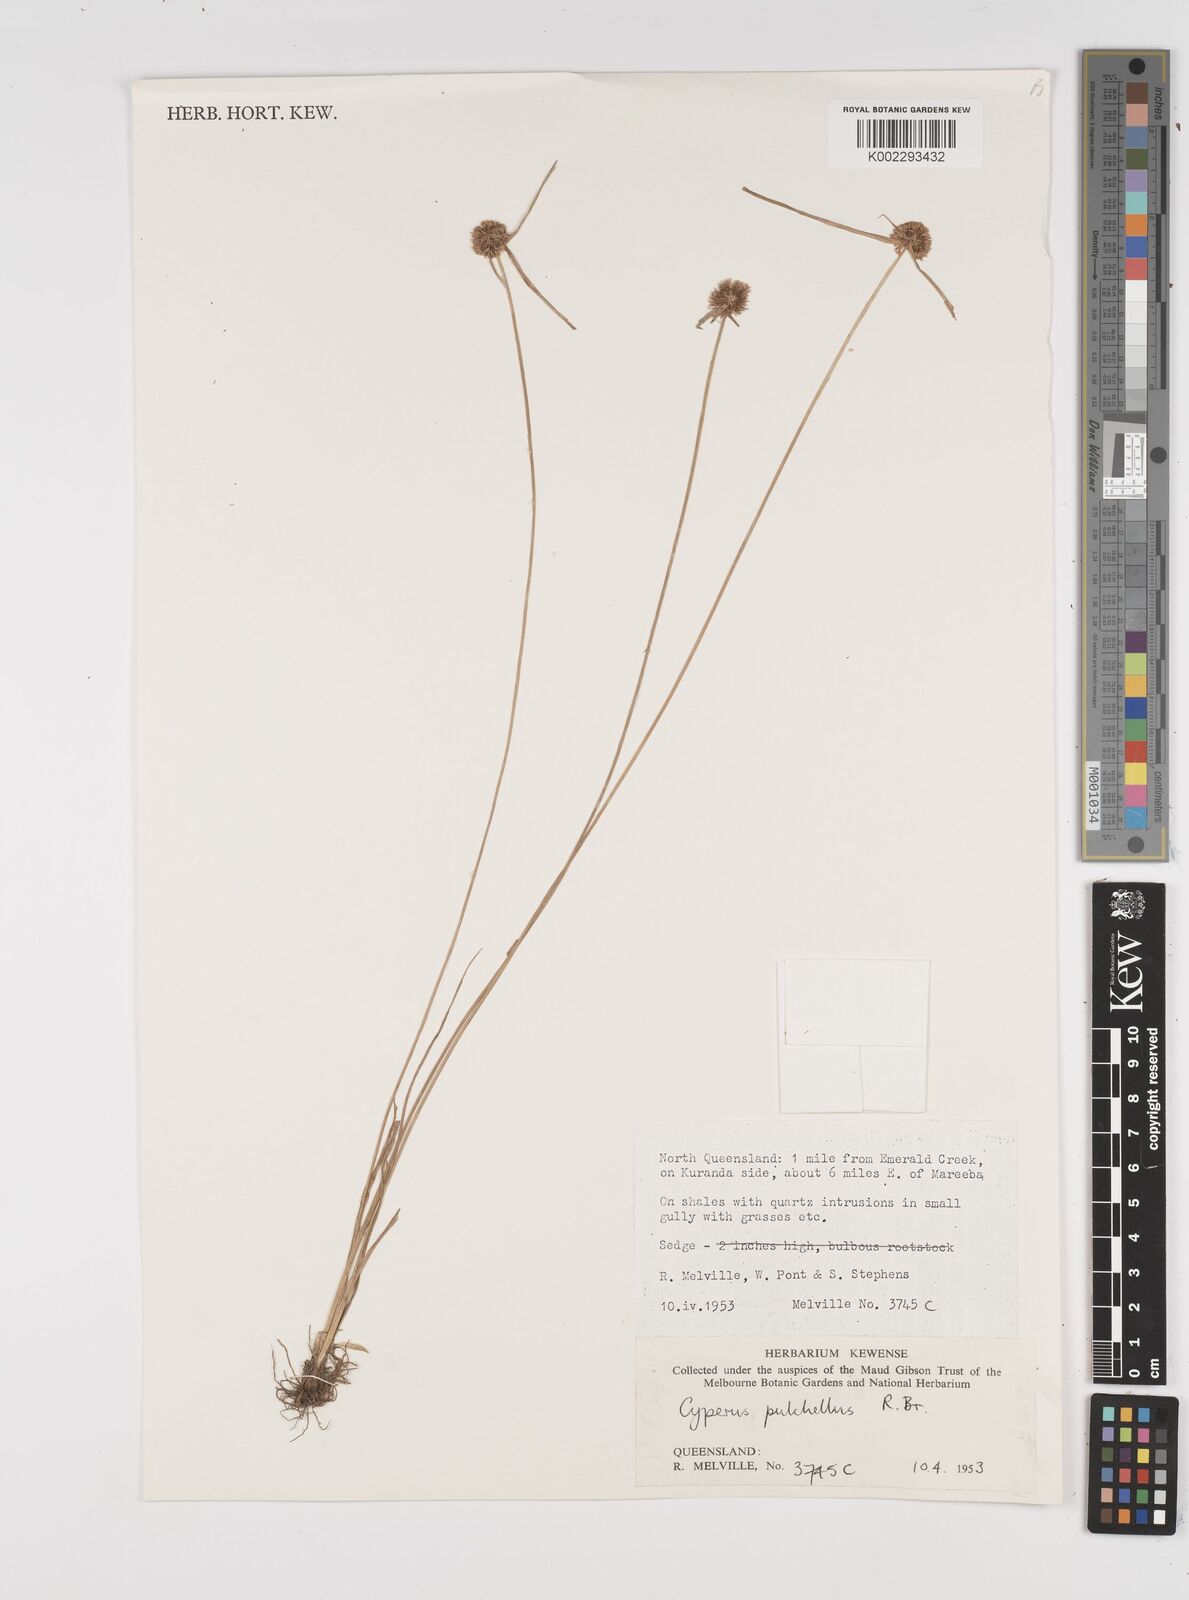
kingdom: Plantae
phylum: Tracheophyta
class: Liliopsida
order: Poales
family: Cyperaceae
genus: Cyperus
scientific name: Cyperus pulchellus
